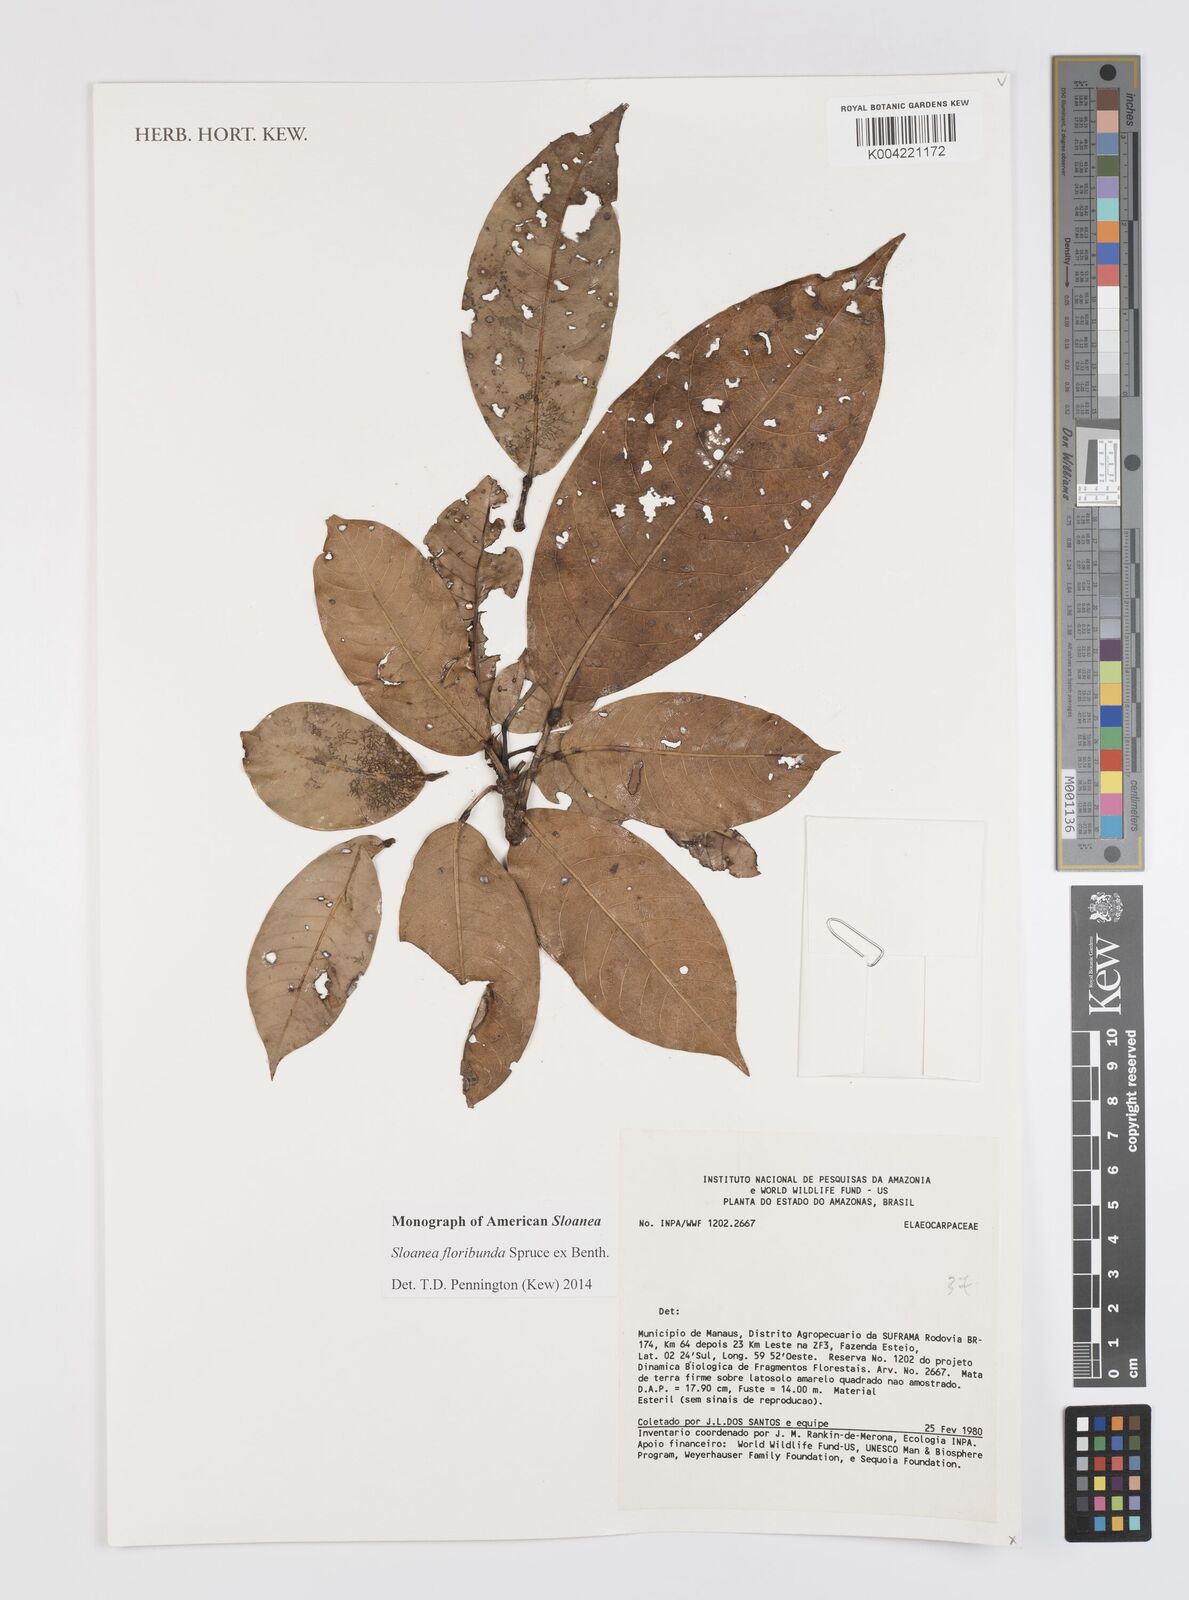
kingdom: Plantae
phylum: Tracheophyta
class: Magnoliopsida
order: Oxalidales
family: Elaeocarpaceae
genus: Sloanea
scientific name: Sloanea floribunda
